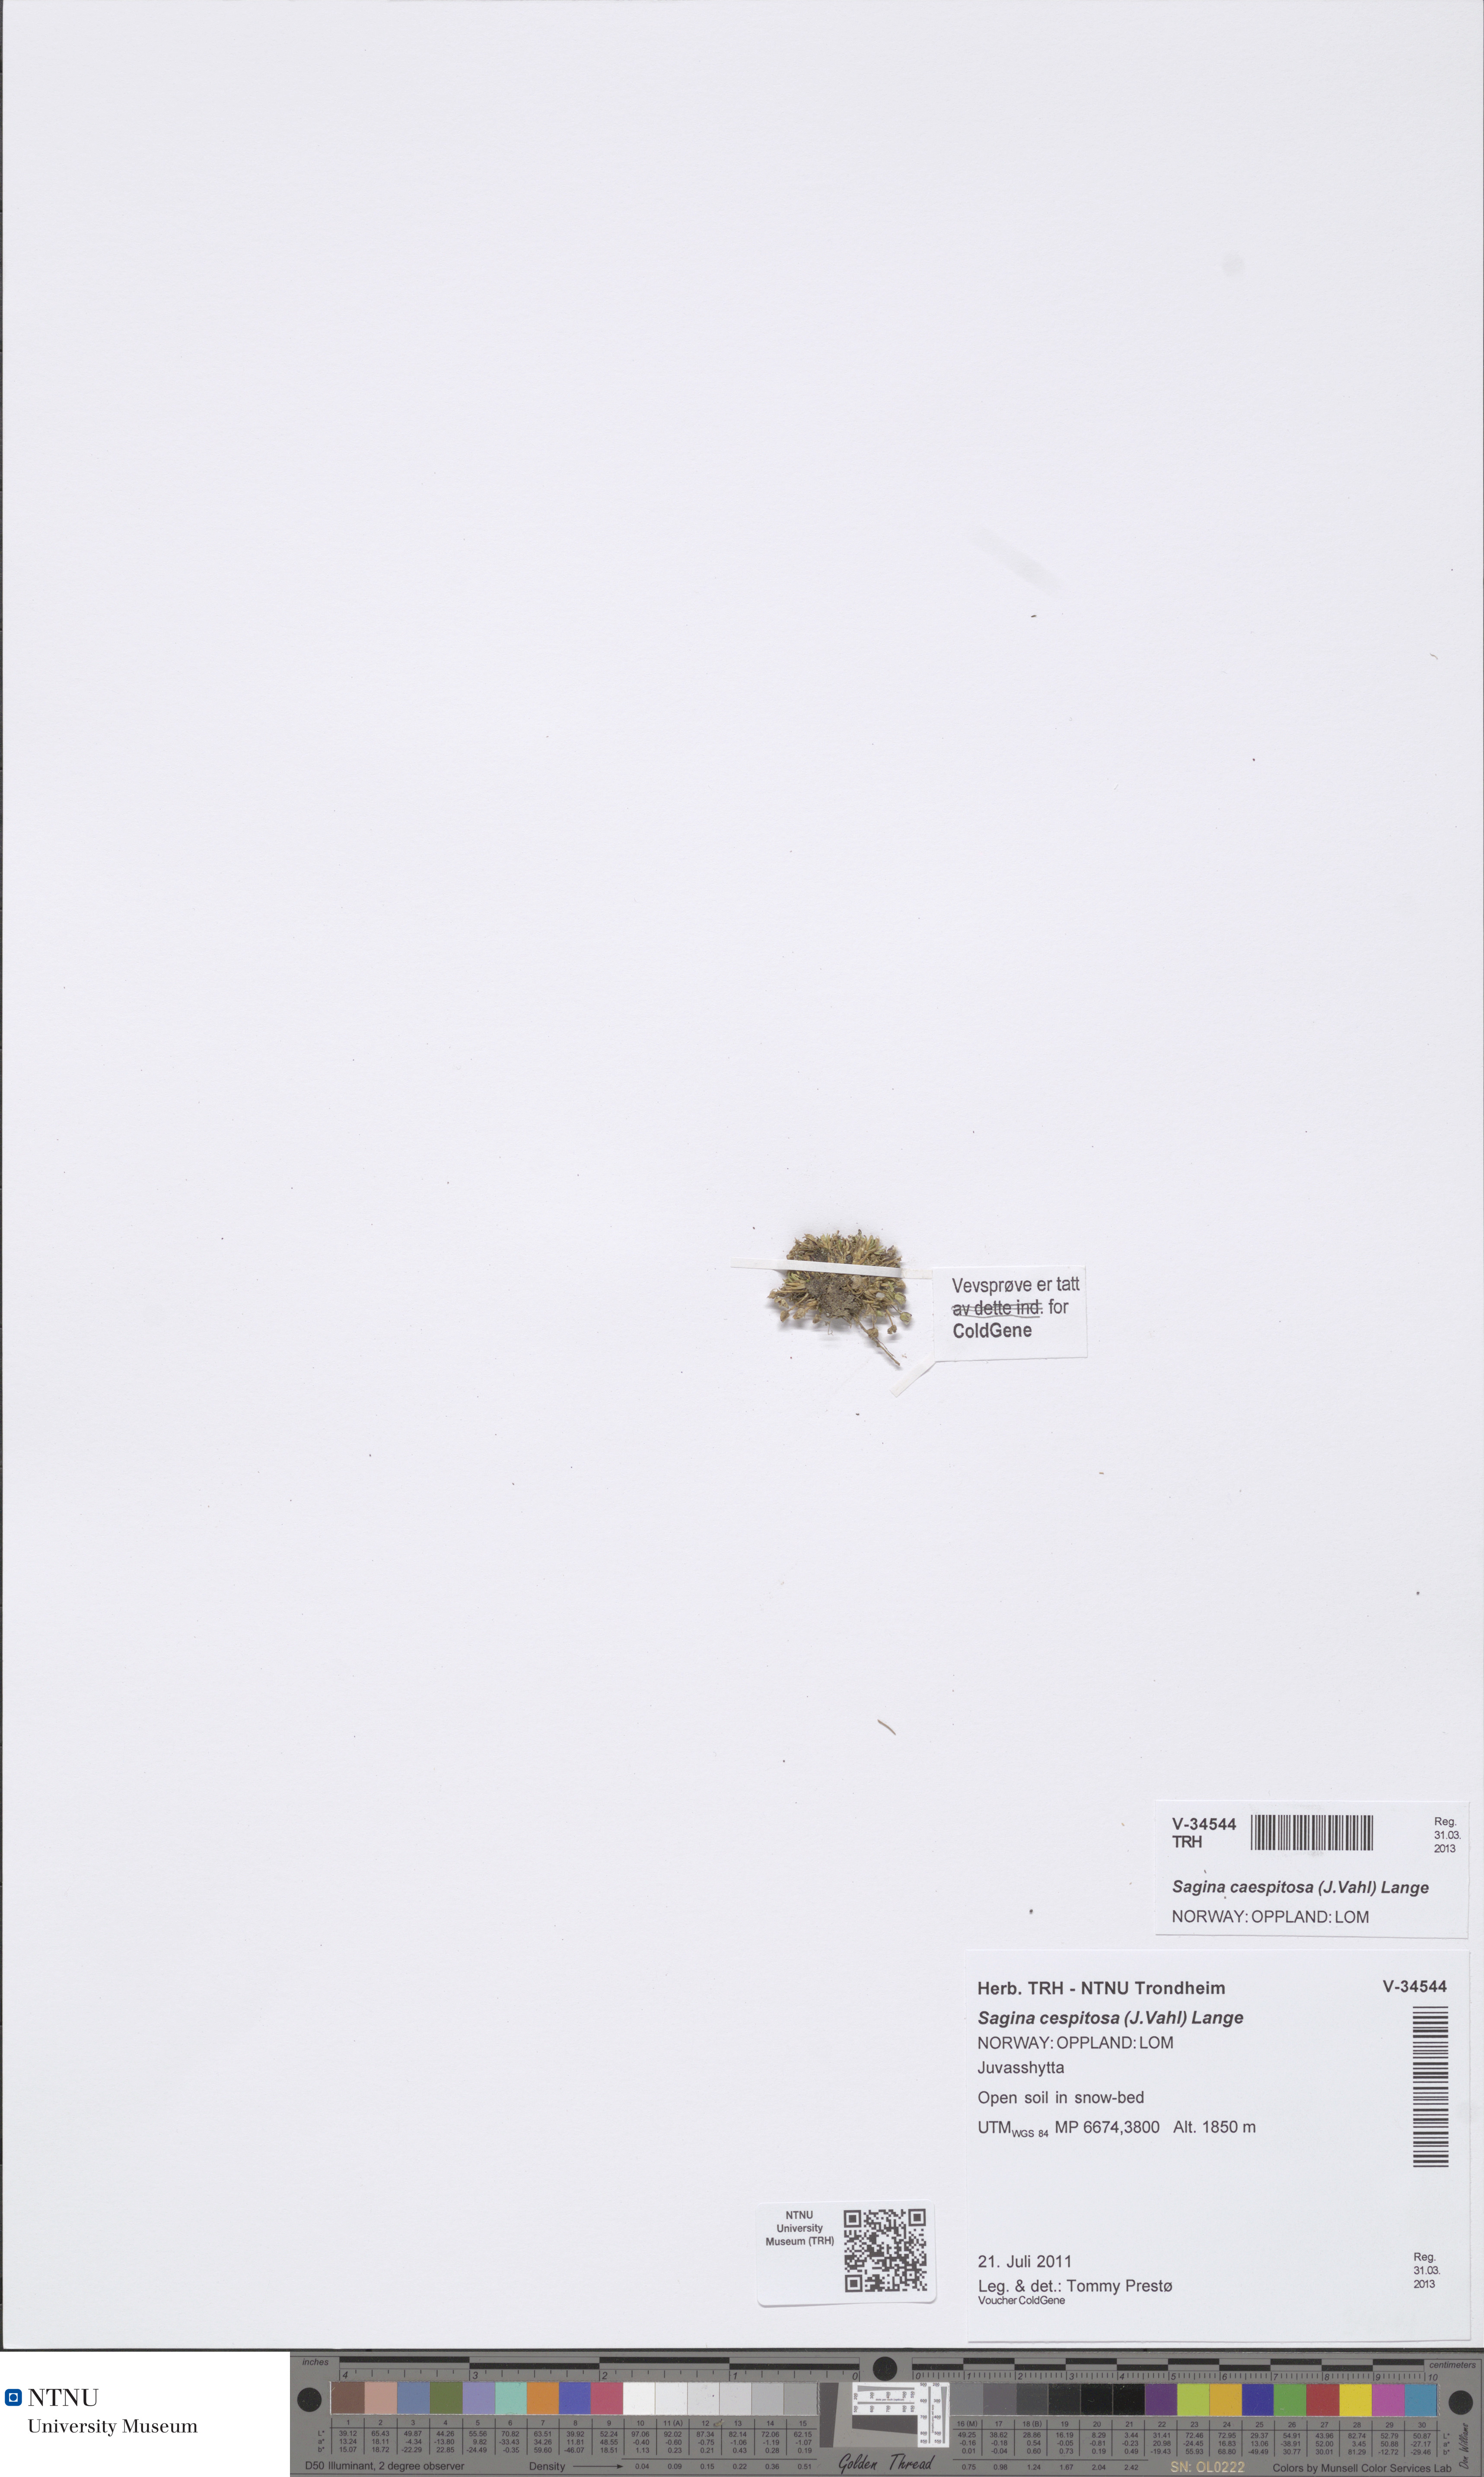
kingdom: Plantae
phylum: Tracheophyta
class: Magnoliopsida
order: Caryophyllales
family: Caryophyllaceae
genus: Sagina
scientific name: Sagina caespitosa
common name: Tufted pearlwort
